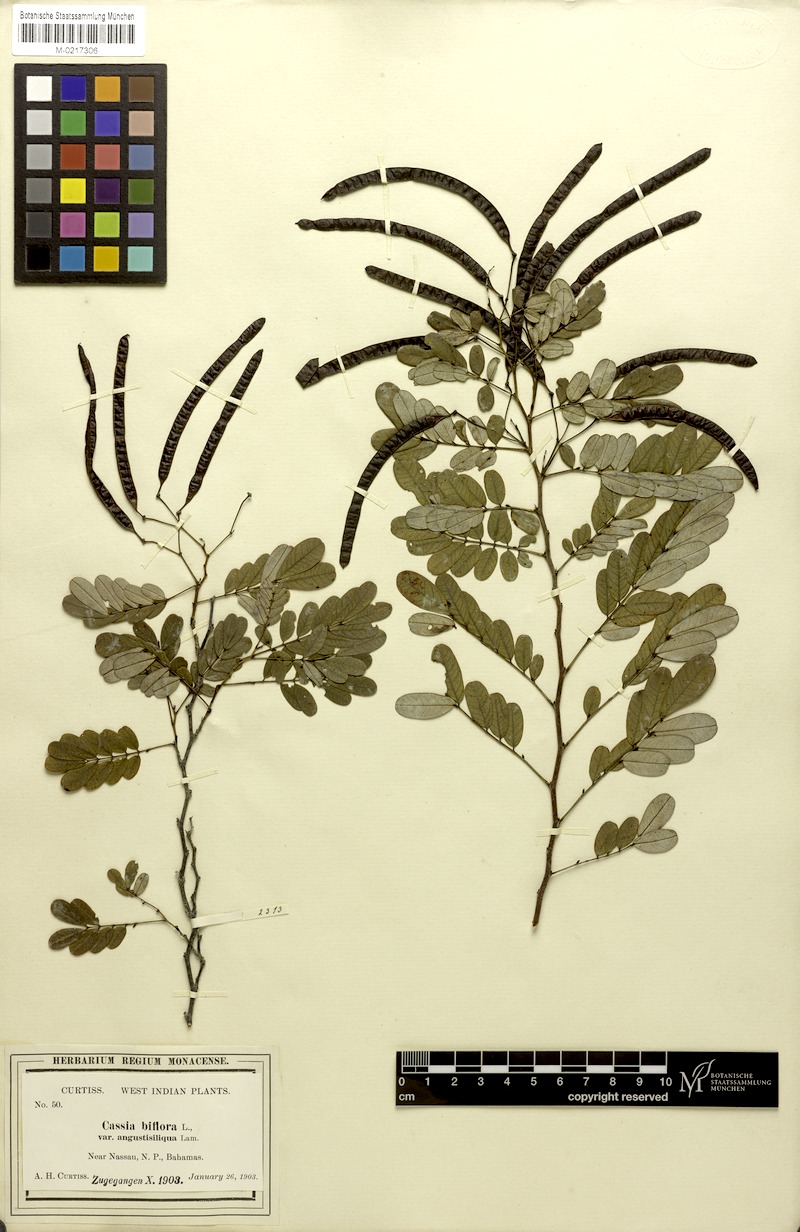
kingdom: Plantae
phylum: Tracheophyta
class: Magnoliopsida
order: Fabales
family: Fabaceae
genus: Senna
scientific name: Senna pallida
